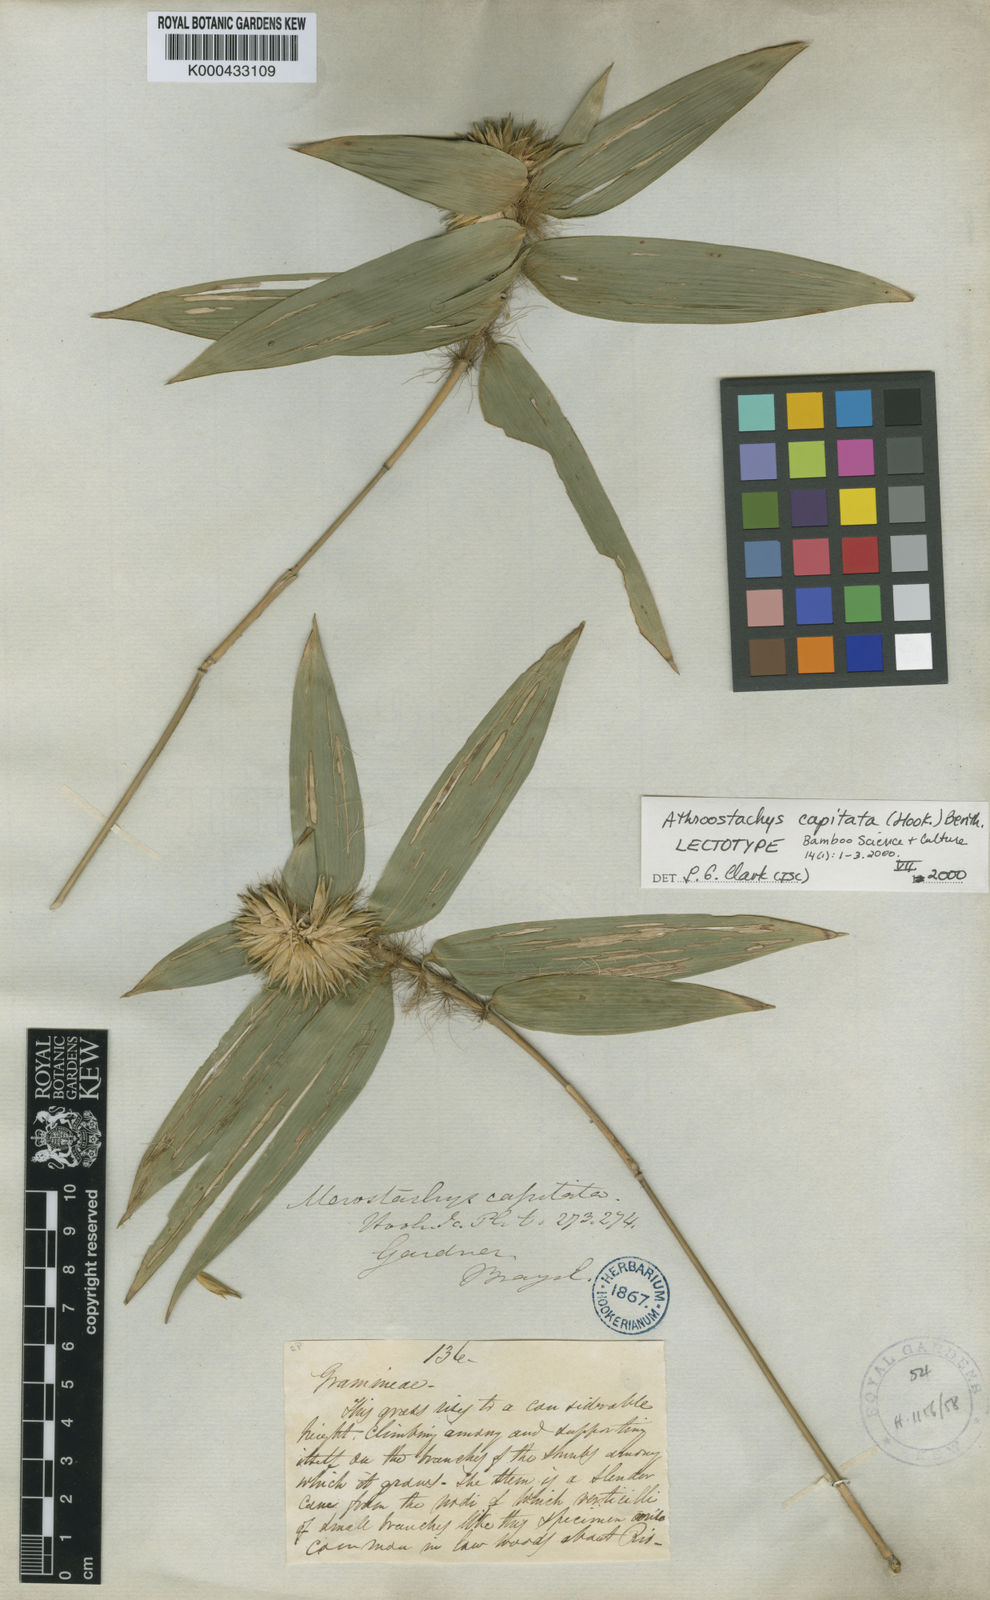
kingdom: Plantae
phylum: Tracheophyta
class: Liliopsida
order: Poales
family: Poaceae
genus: Athroostachys
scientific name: Athroostachys capitata
